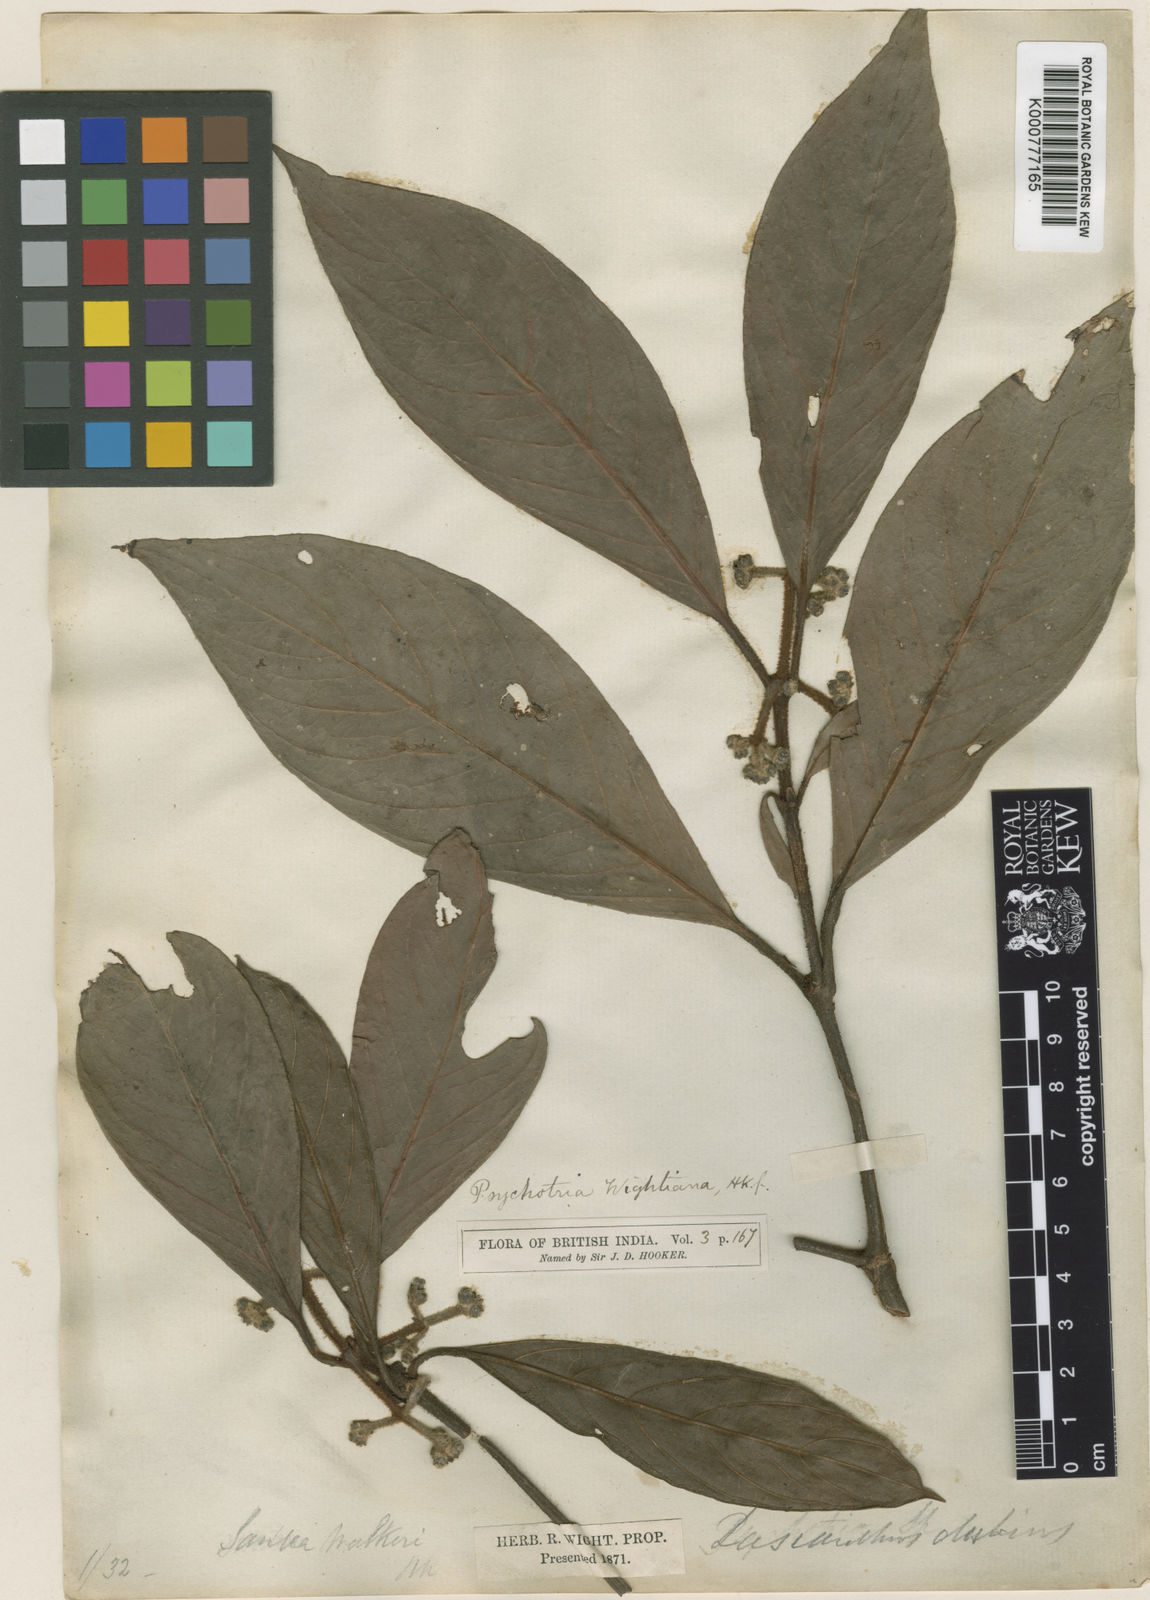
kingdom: Plantae
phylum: Tracheophyta
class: Magnoliopsida
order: Gentianales
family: Rubiaceae
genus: Psychotria
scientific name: Psychotria dubia
